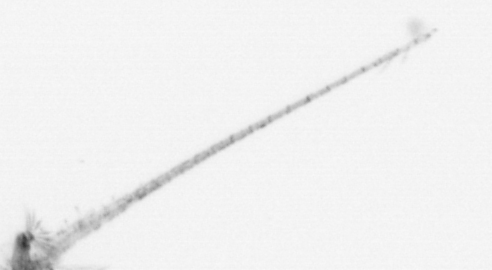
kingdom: Animalia
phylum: Cnidaria
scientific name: Cnidaria
